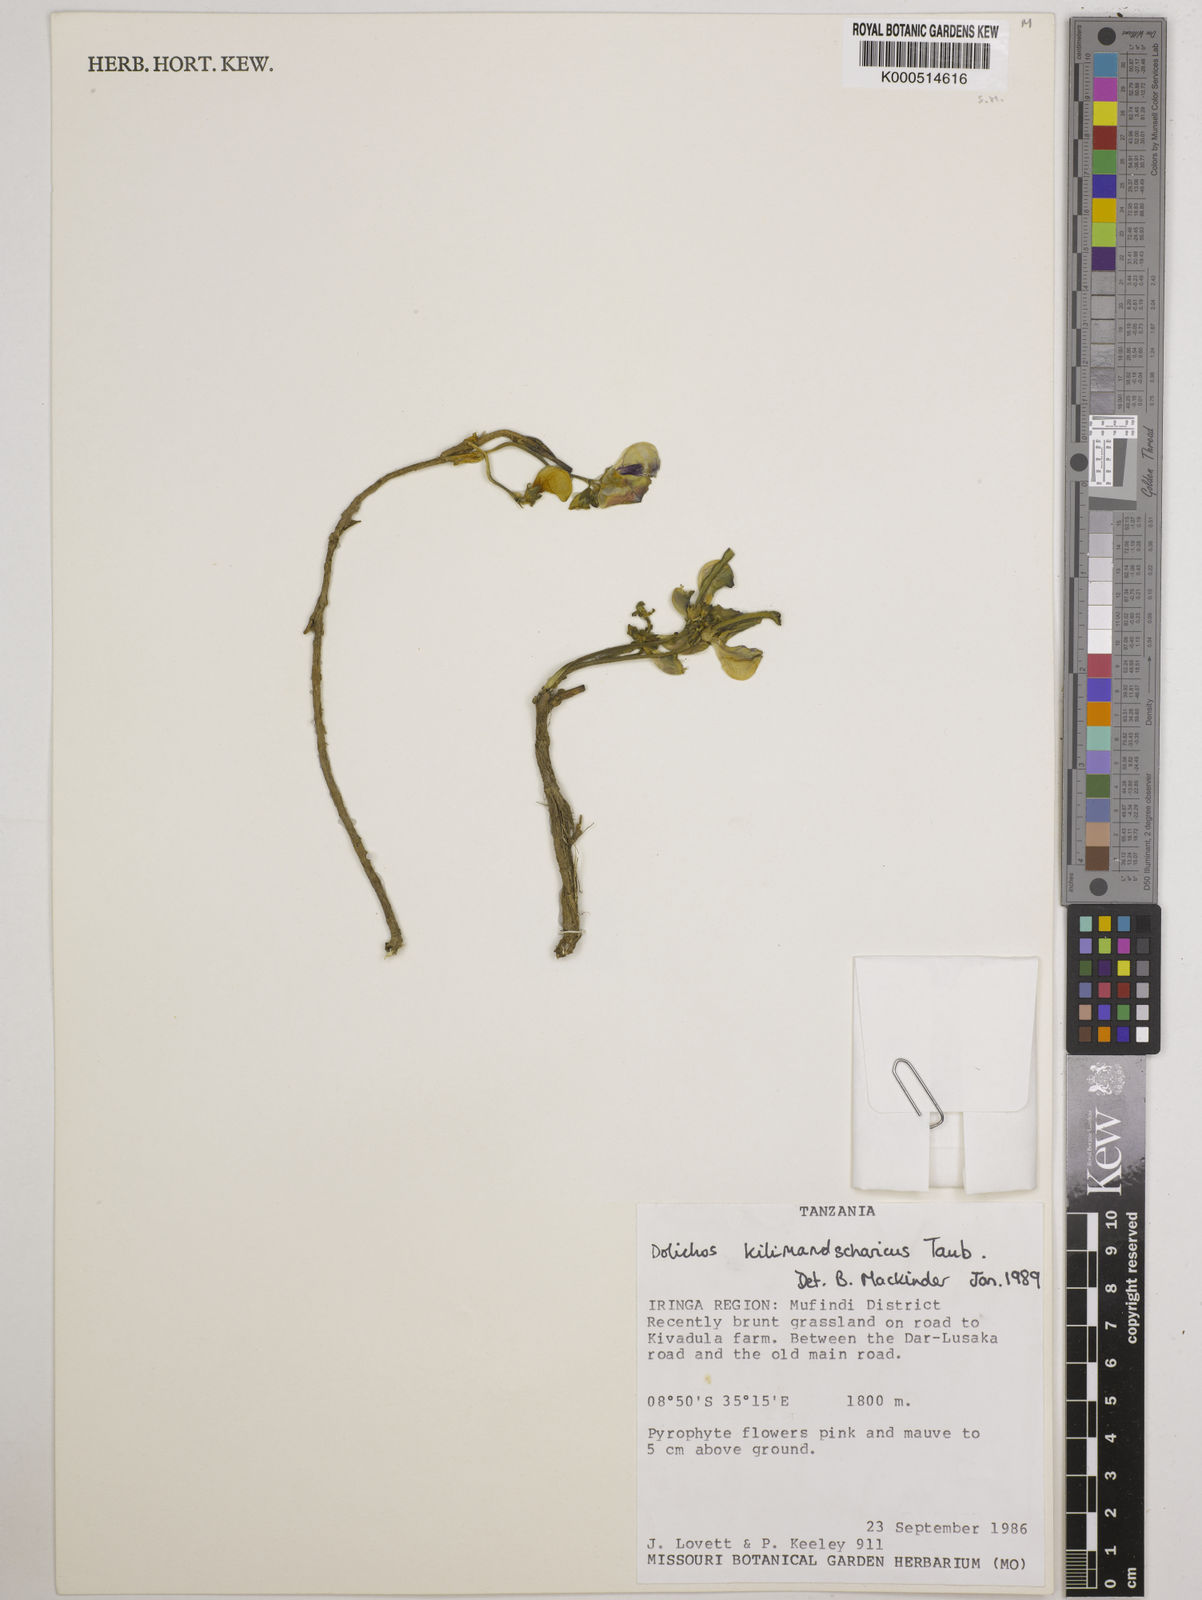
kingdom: Plantae
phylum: Tracheophyta
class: Magnoliopsida
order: Fabales
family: Fabaceae
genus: Dolichos
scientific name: Dolichos kilimandscharicus
